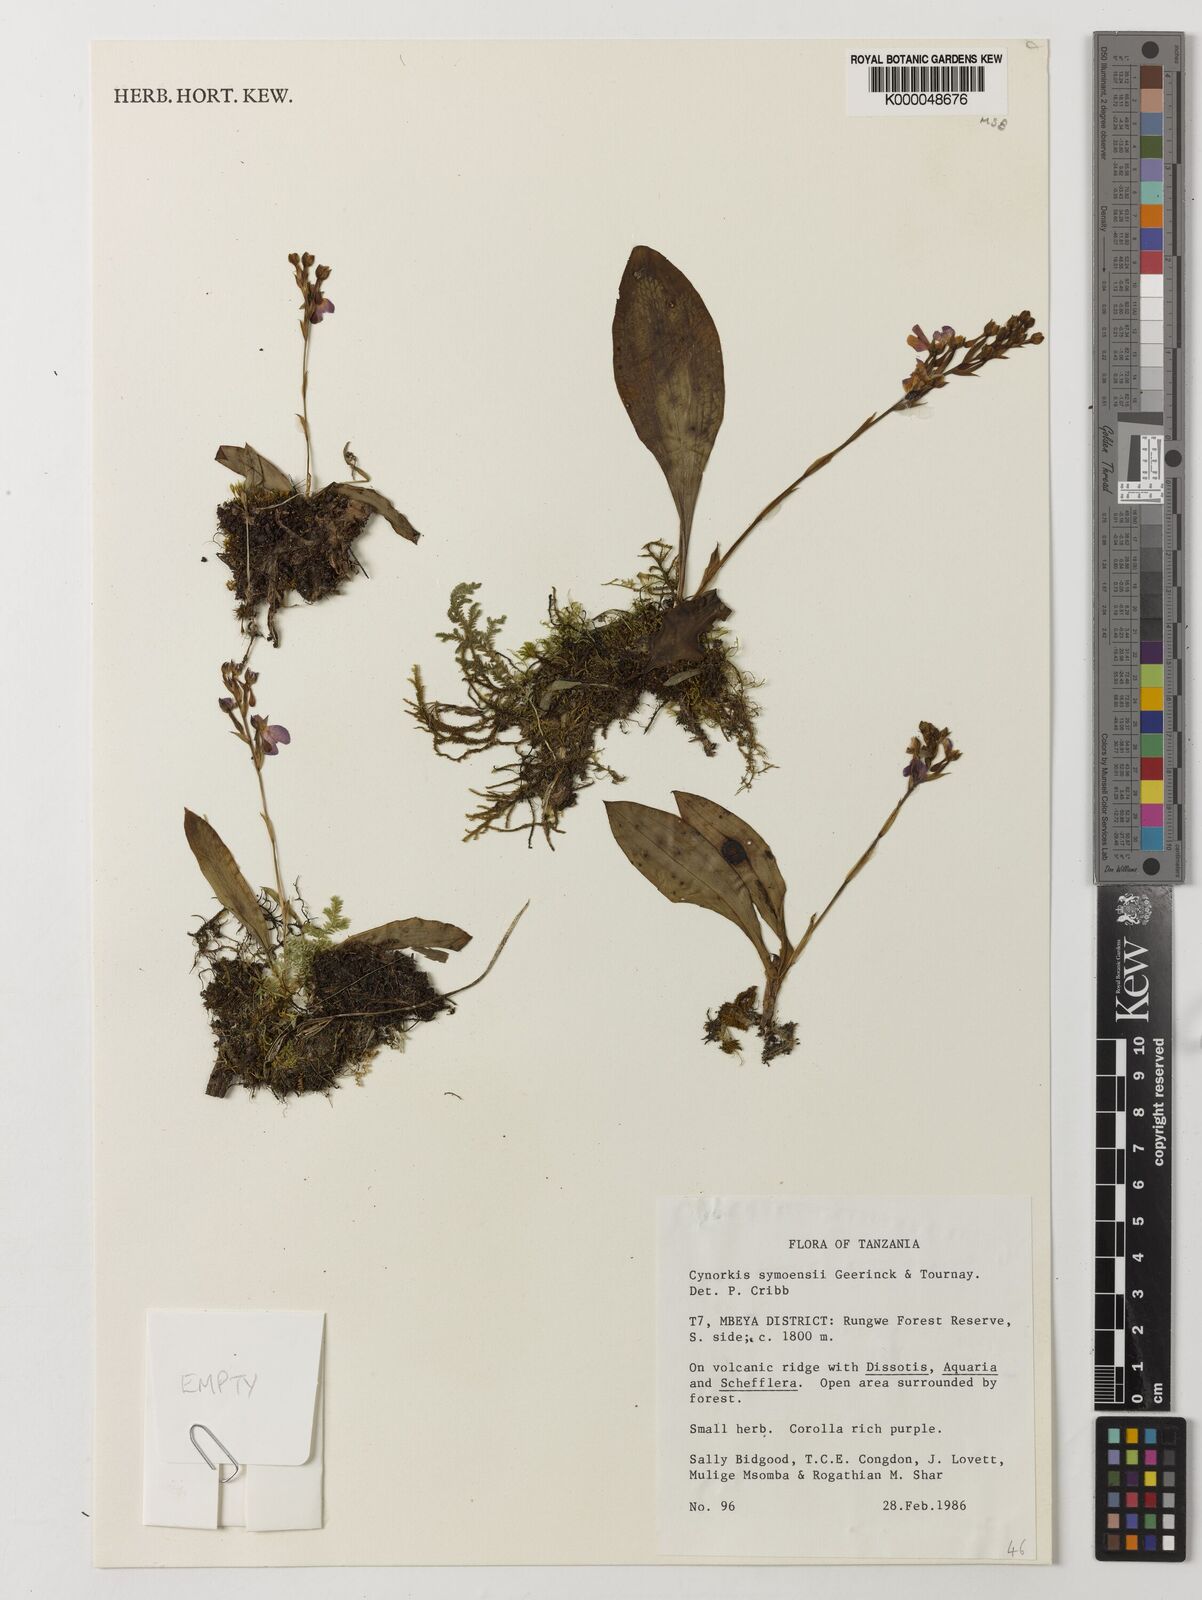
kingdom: Plantae
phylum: Tracheophyta
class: Liliopsida
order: Asparagales
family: Orchidaceae
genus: Cynorkis
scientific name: Cynorkis symoensii
